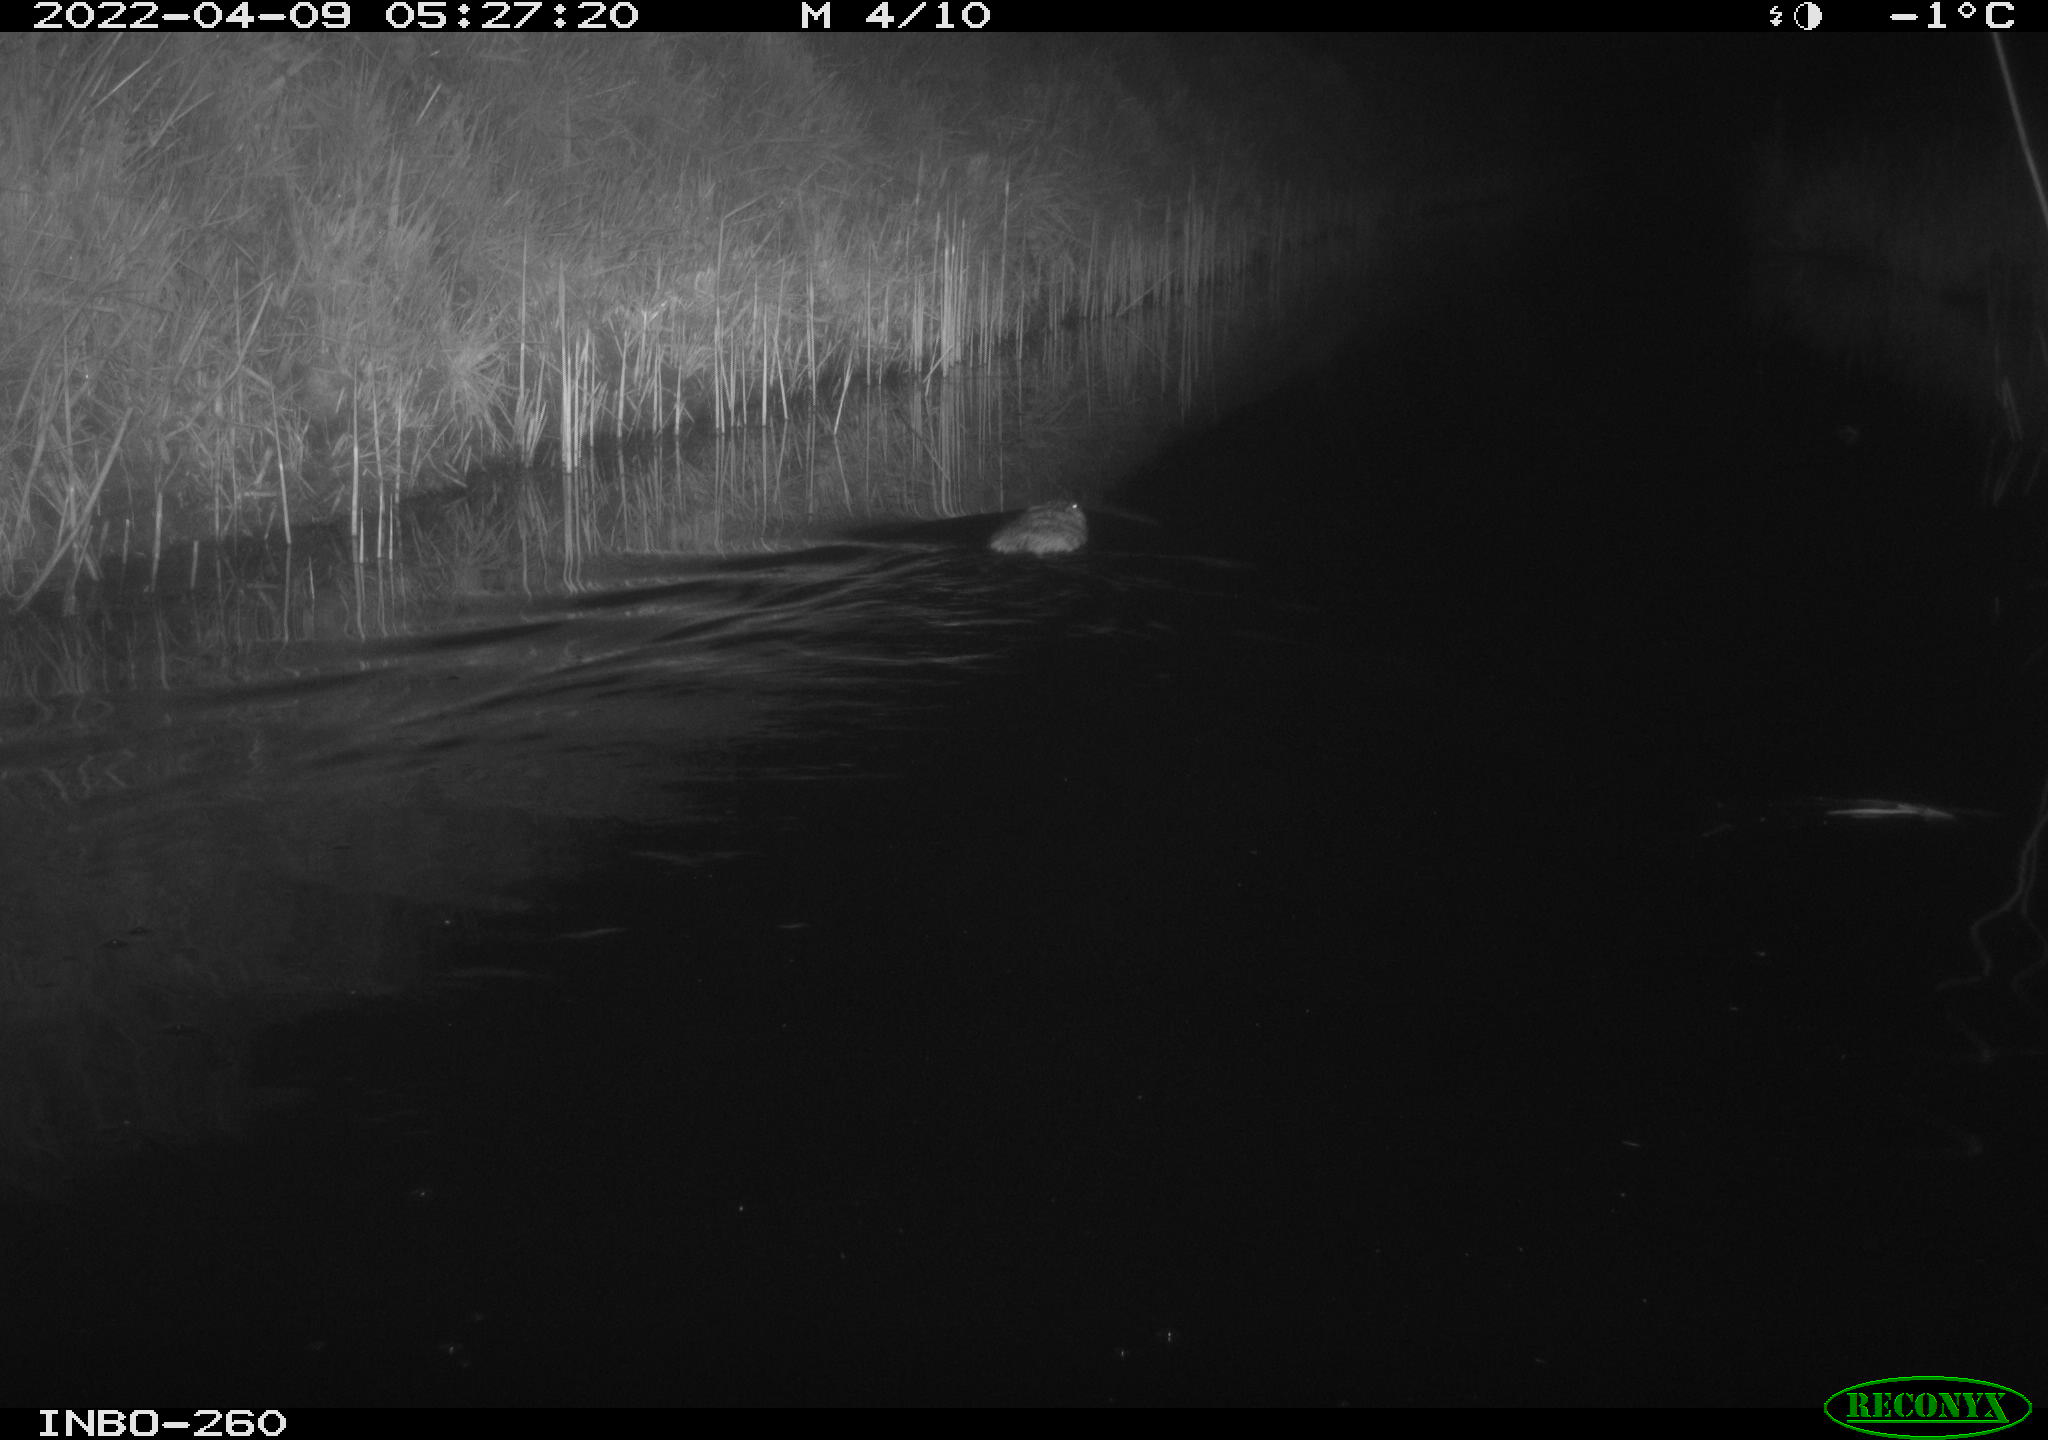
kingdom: Animalia
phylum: Chordata
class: Mammalia
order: Rodentia
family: Cricetidae
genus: Ondatra
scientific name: Ondatra zibethicus
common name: Muskrat
